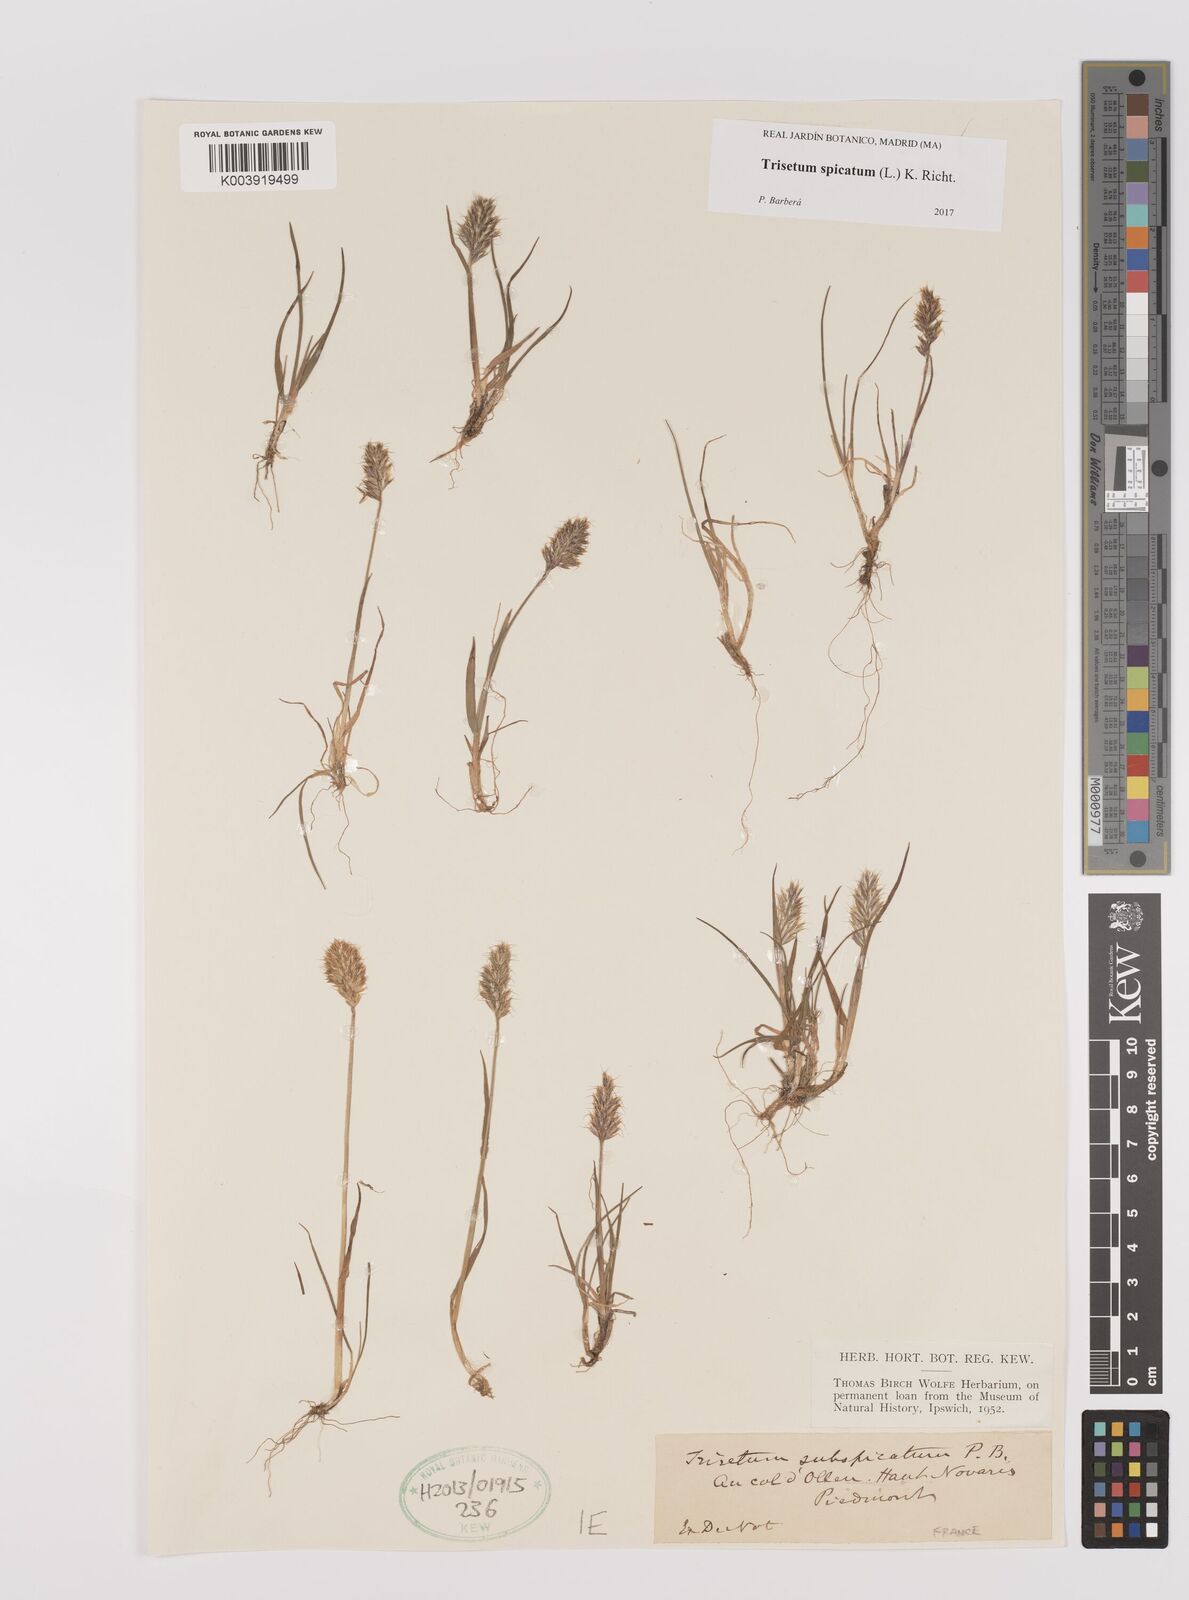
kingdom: Plantae
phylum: Tracheophyta
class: Liliopsida
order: Poales
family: Poaceae
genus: Koeleria
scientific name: Koeleria spicata
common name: Mountain trisetum
